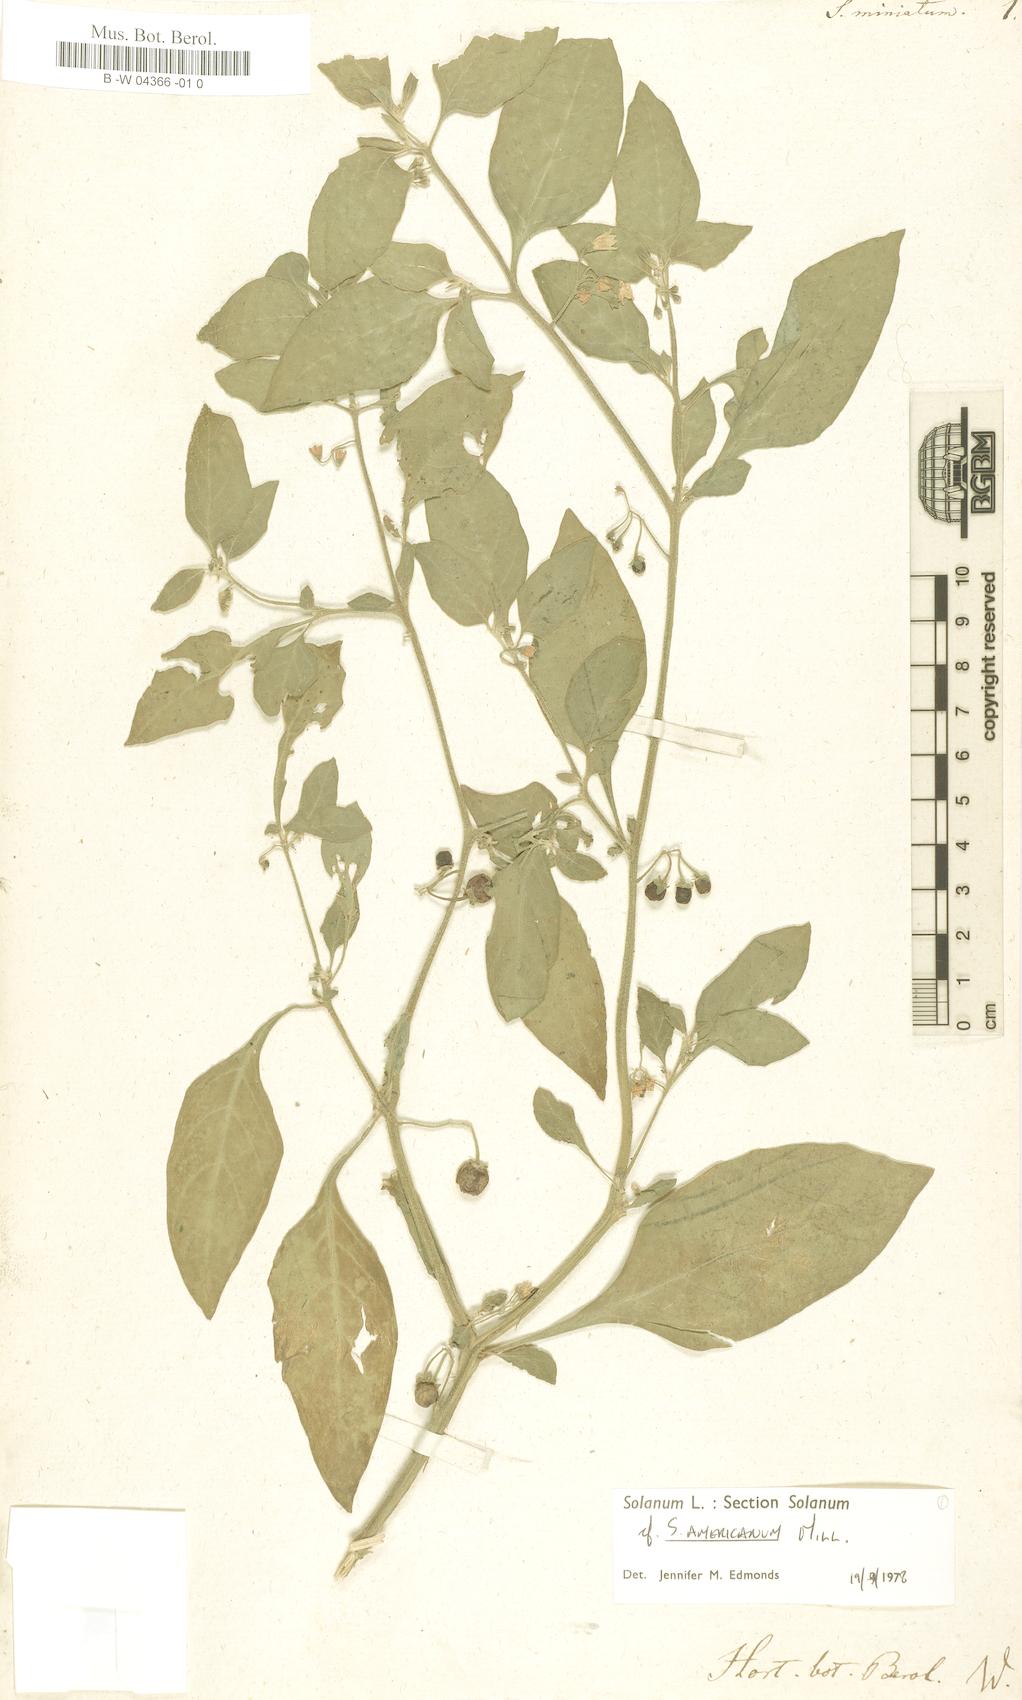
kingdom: Plantae
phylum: Tracheophyta
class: Magnoliopsida
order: Solanales
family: Solanaceae
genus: Solanum
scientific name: Solanum villosum
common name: Red nightshade
